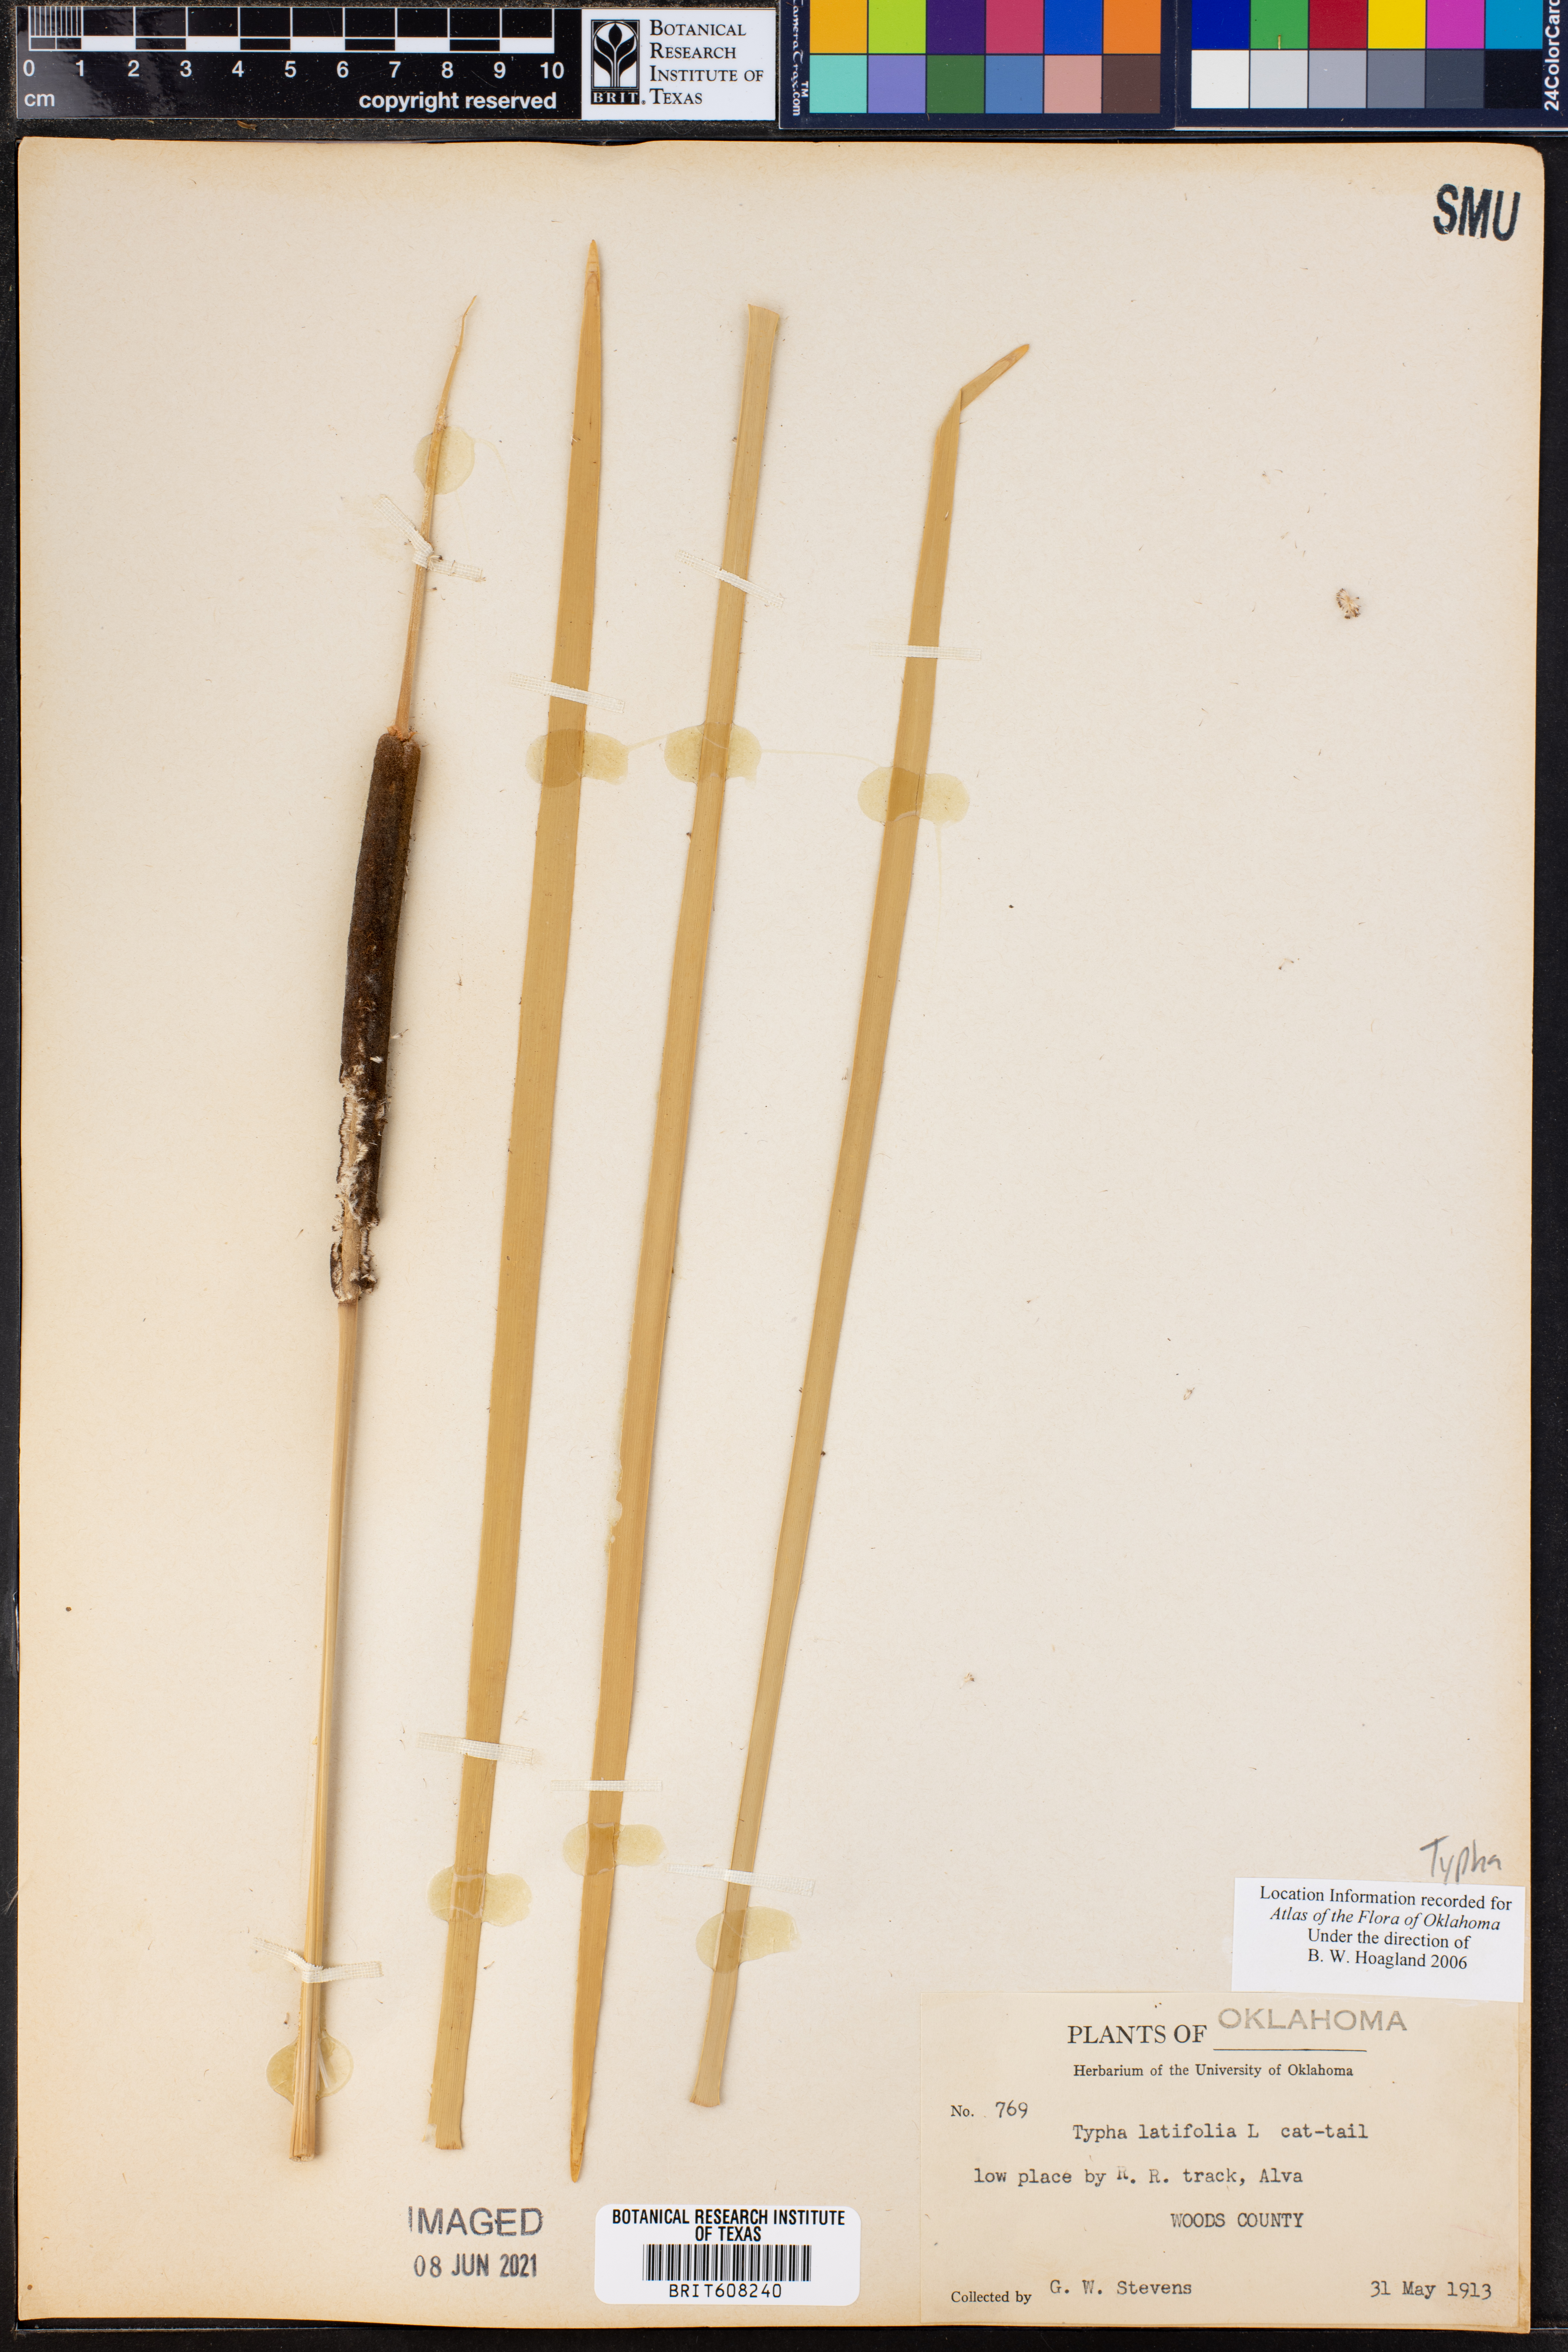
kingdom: Plantae
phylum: Tracheophyta
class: Liliopsida
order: Poales
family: Typhaceae
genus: Typha
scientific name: Typha latifolia
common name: Broadleaf cattail
